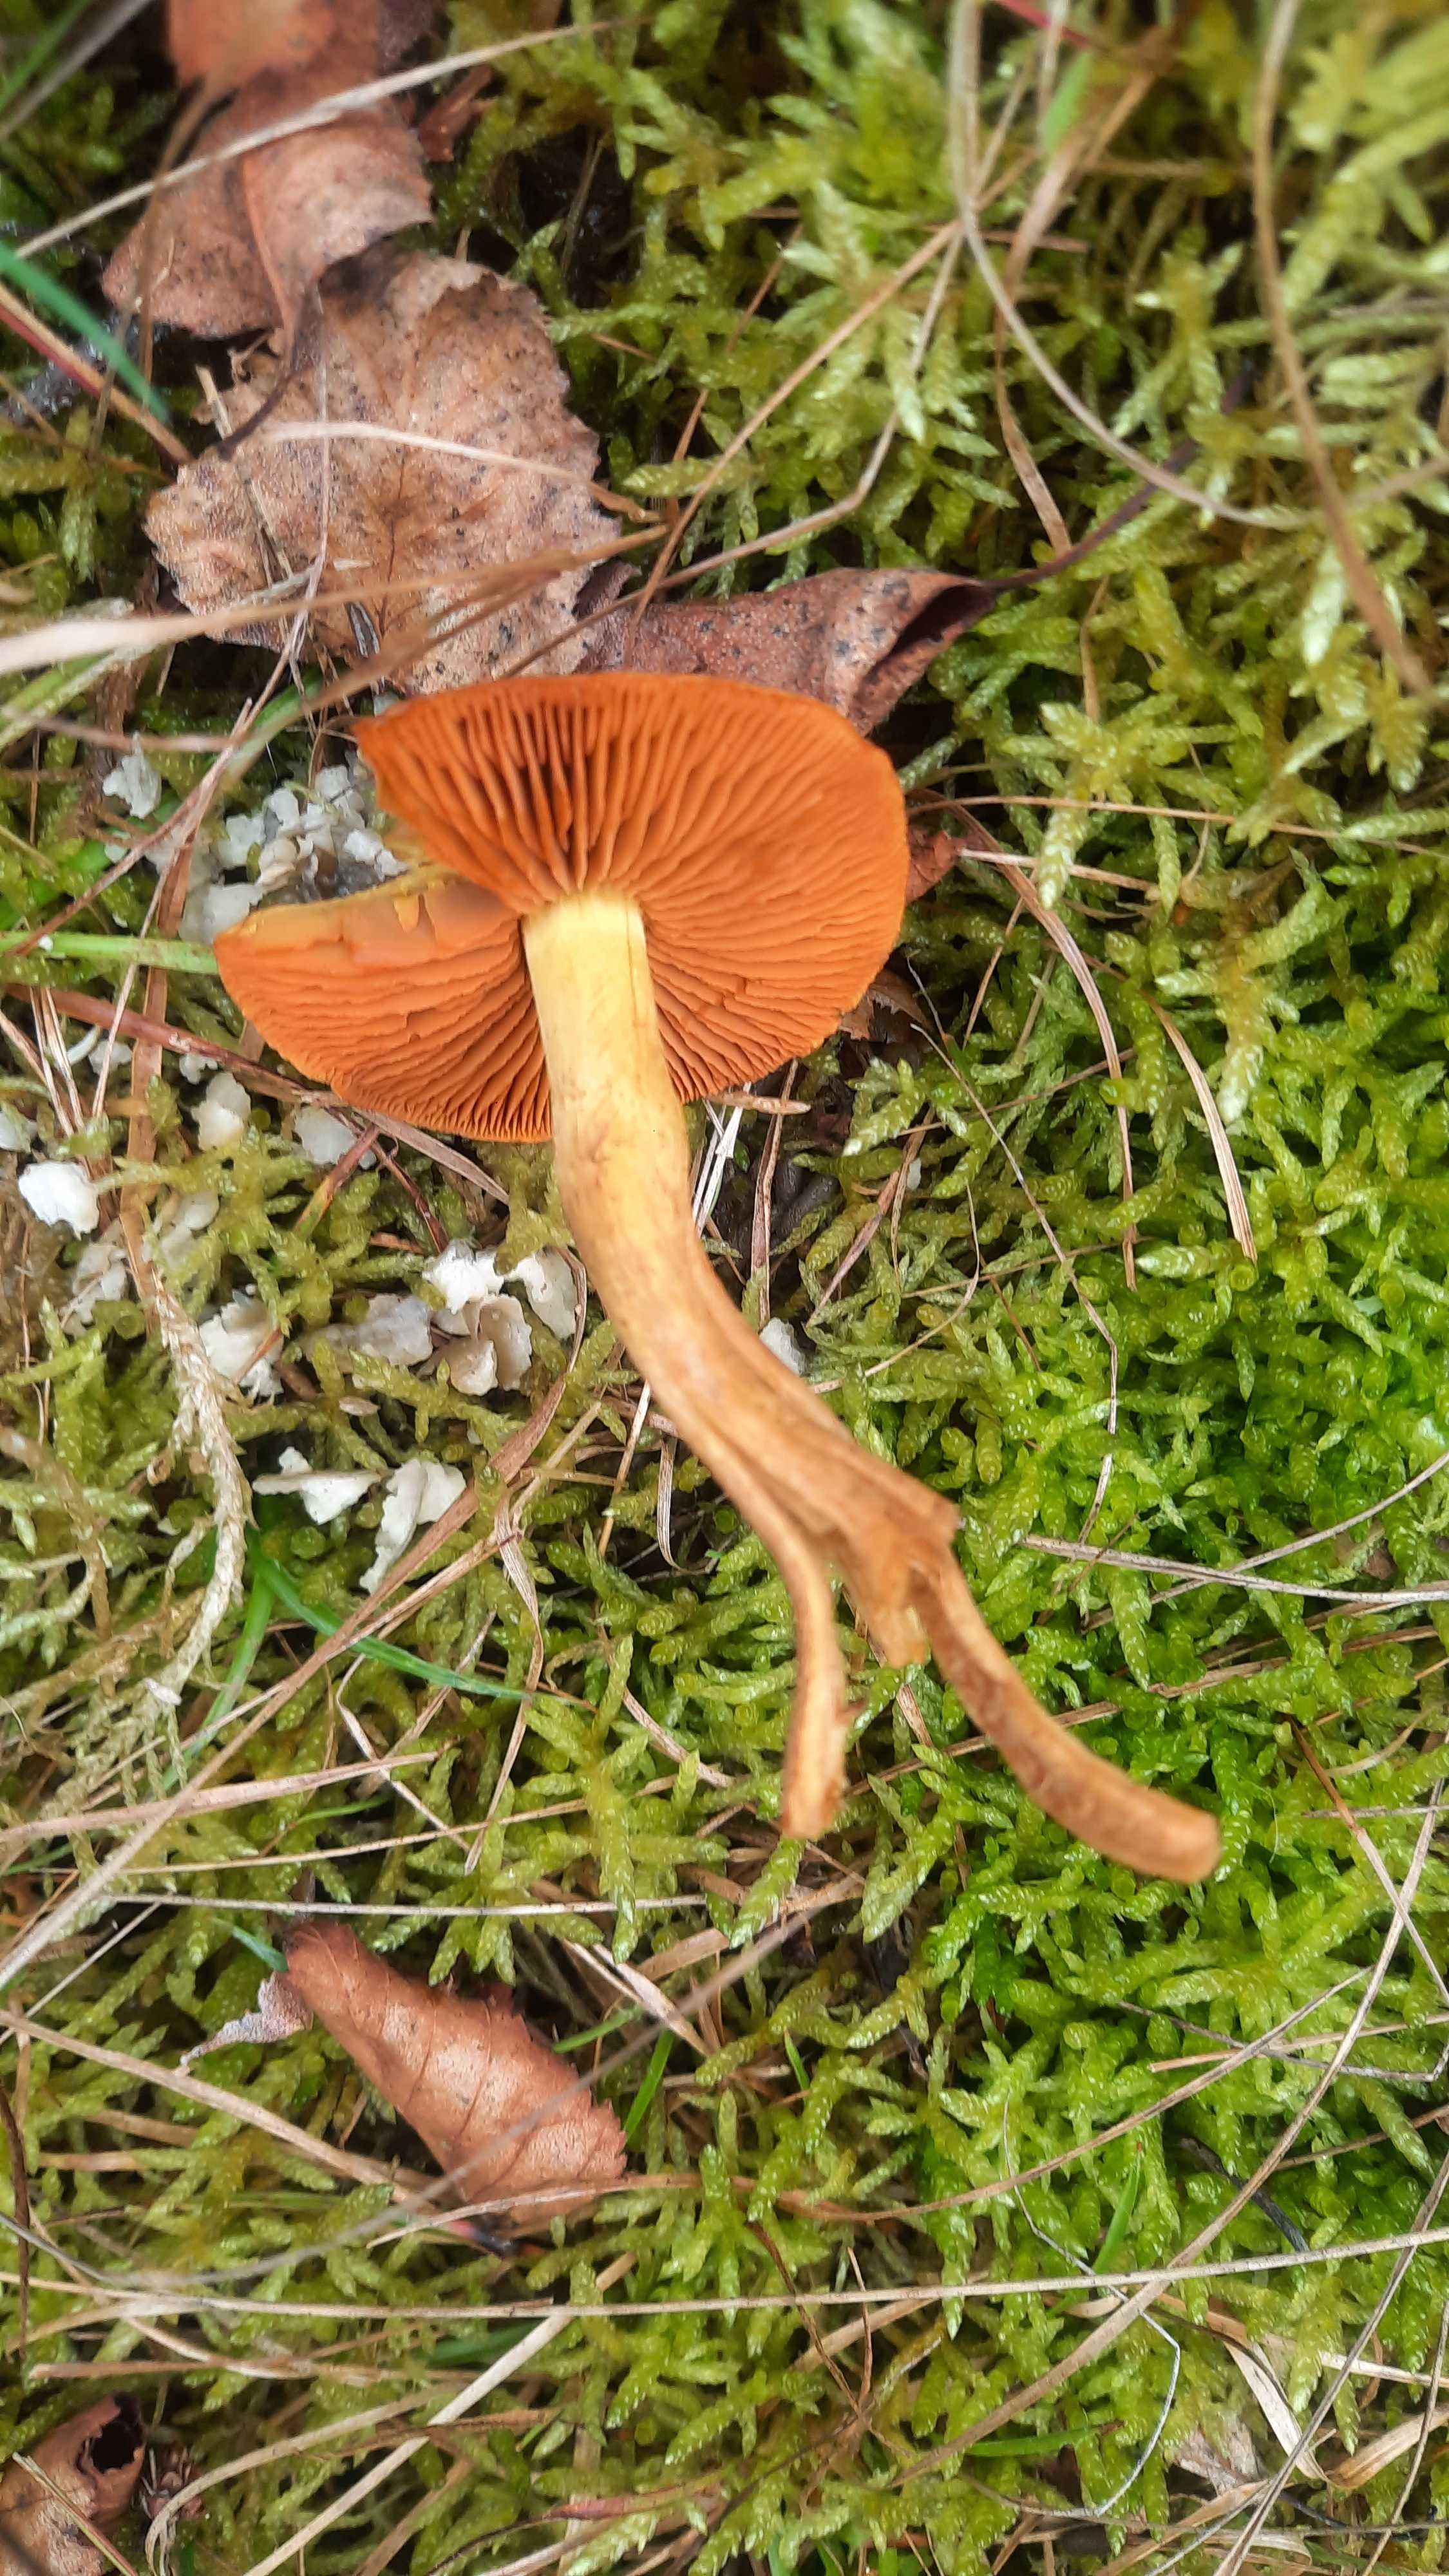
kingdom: Fungi
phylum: Basidiomycota
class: Agaricomycetes
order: Agaricales
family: Cortinariaceae
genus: Cortinarius
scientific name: Cortinarius
